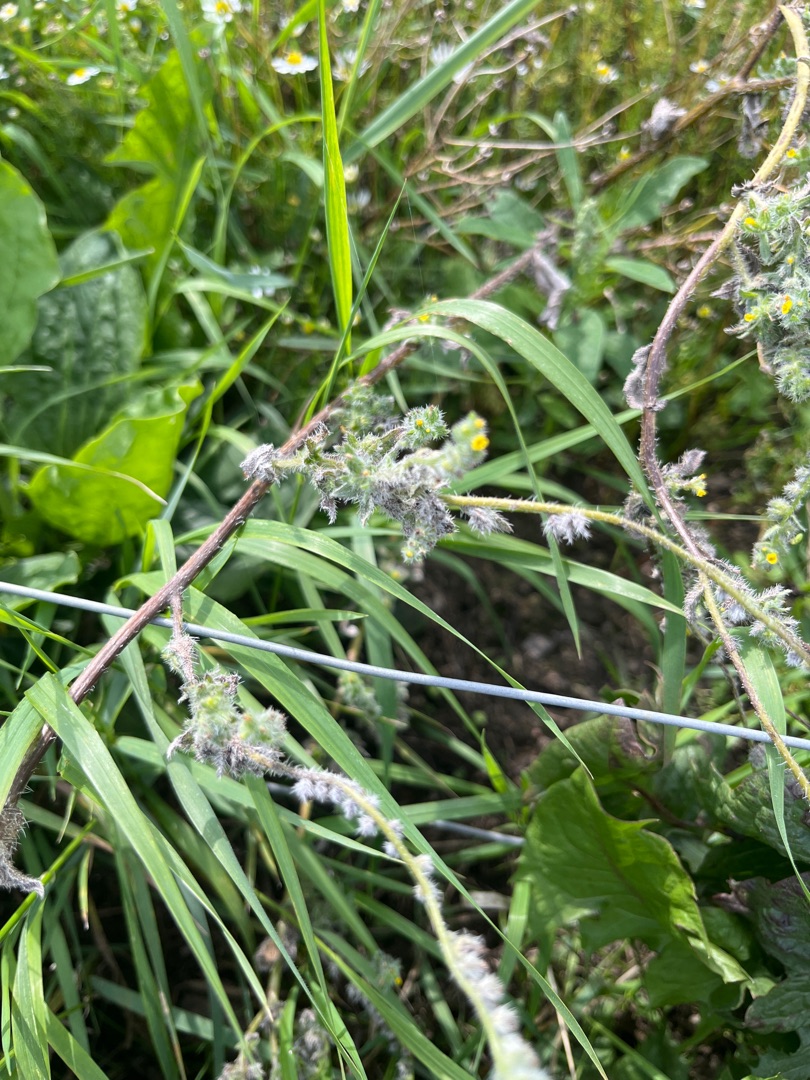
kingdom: Plantae
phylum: Tracheophyta
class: Magnoliopsida
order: Boraginales
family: Boraginaceae
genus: Amsinckia
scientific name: Amsinckia menziesii
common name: Småblomstret gulurt
